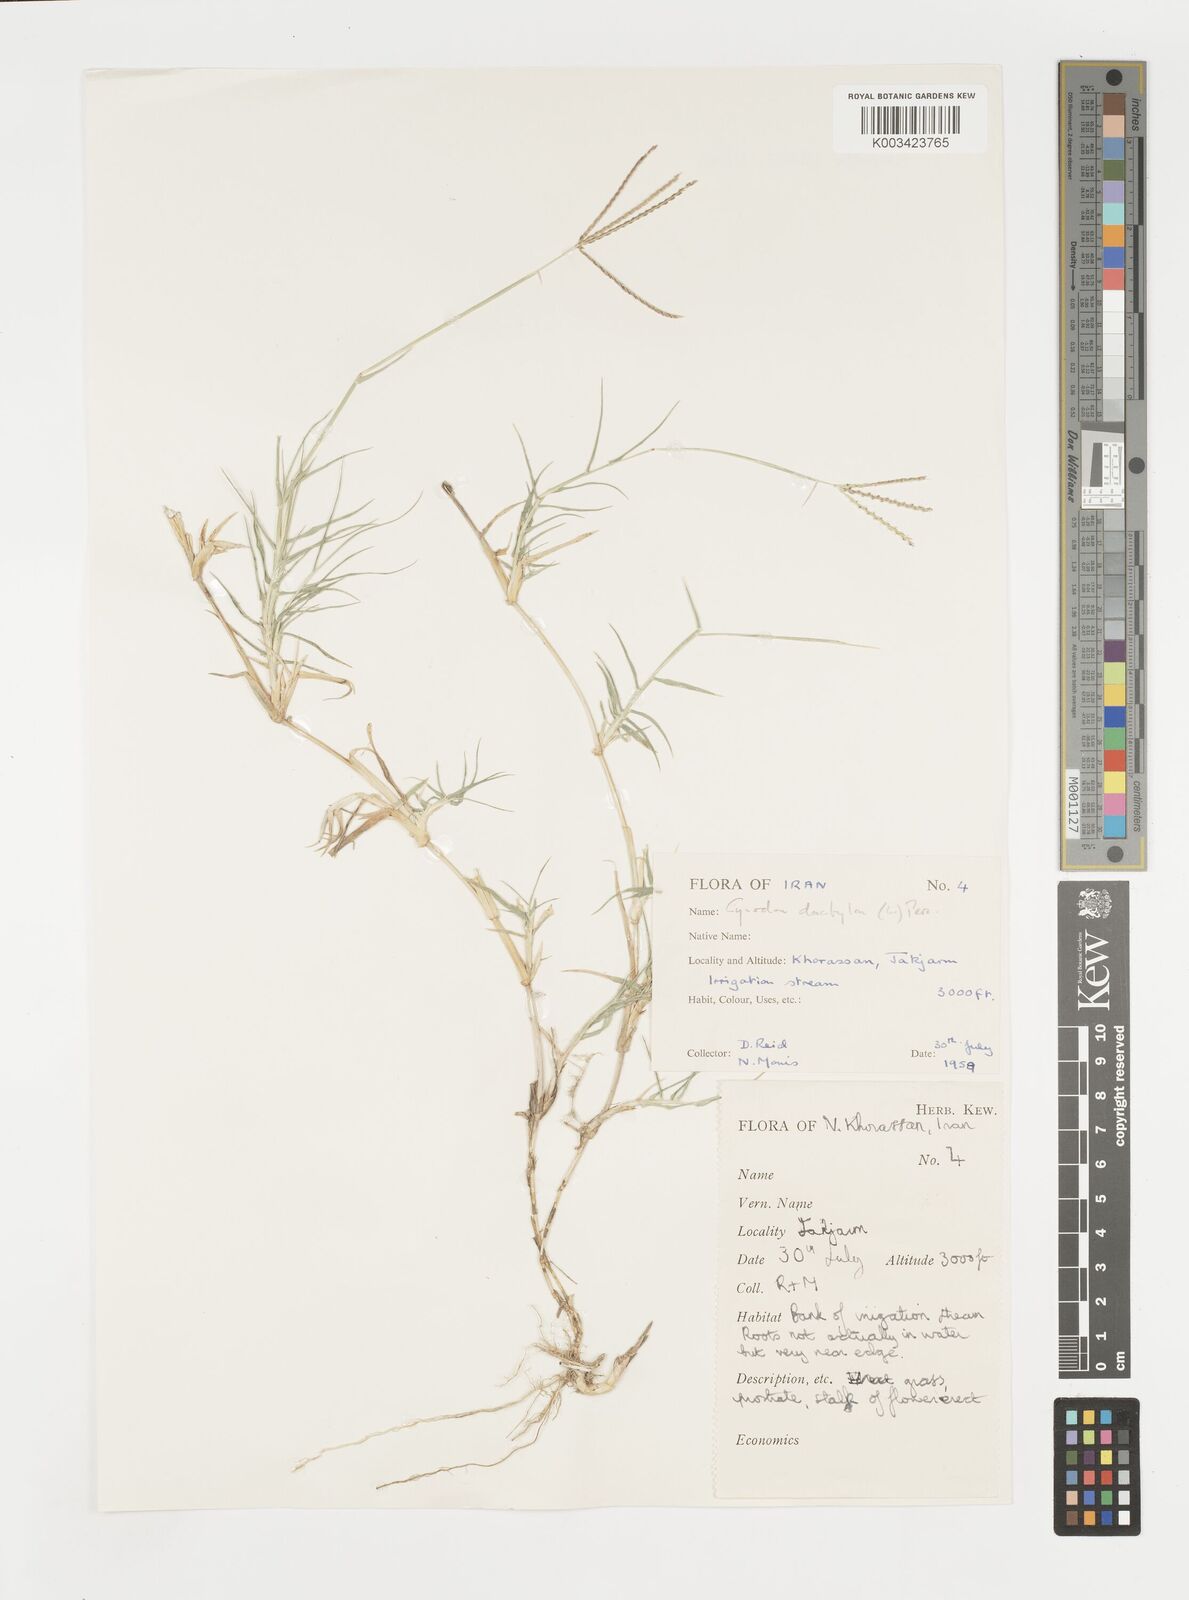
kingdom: Plantae
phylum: Tracheophyta
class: Liliopsida
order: Poales
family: Poaceae
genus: Cynodon
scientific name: Cynodon dactylon
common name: Bermuda grass
